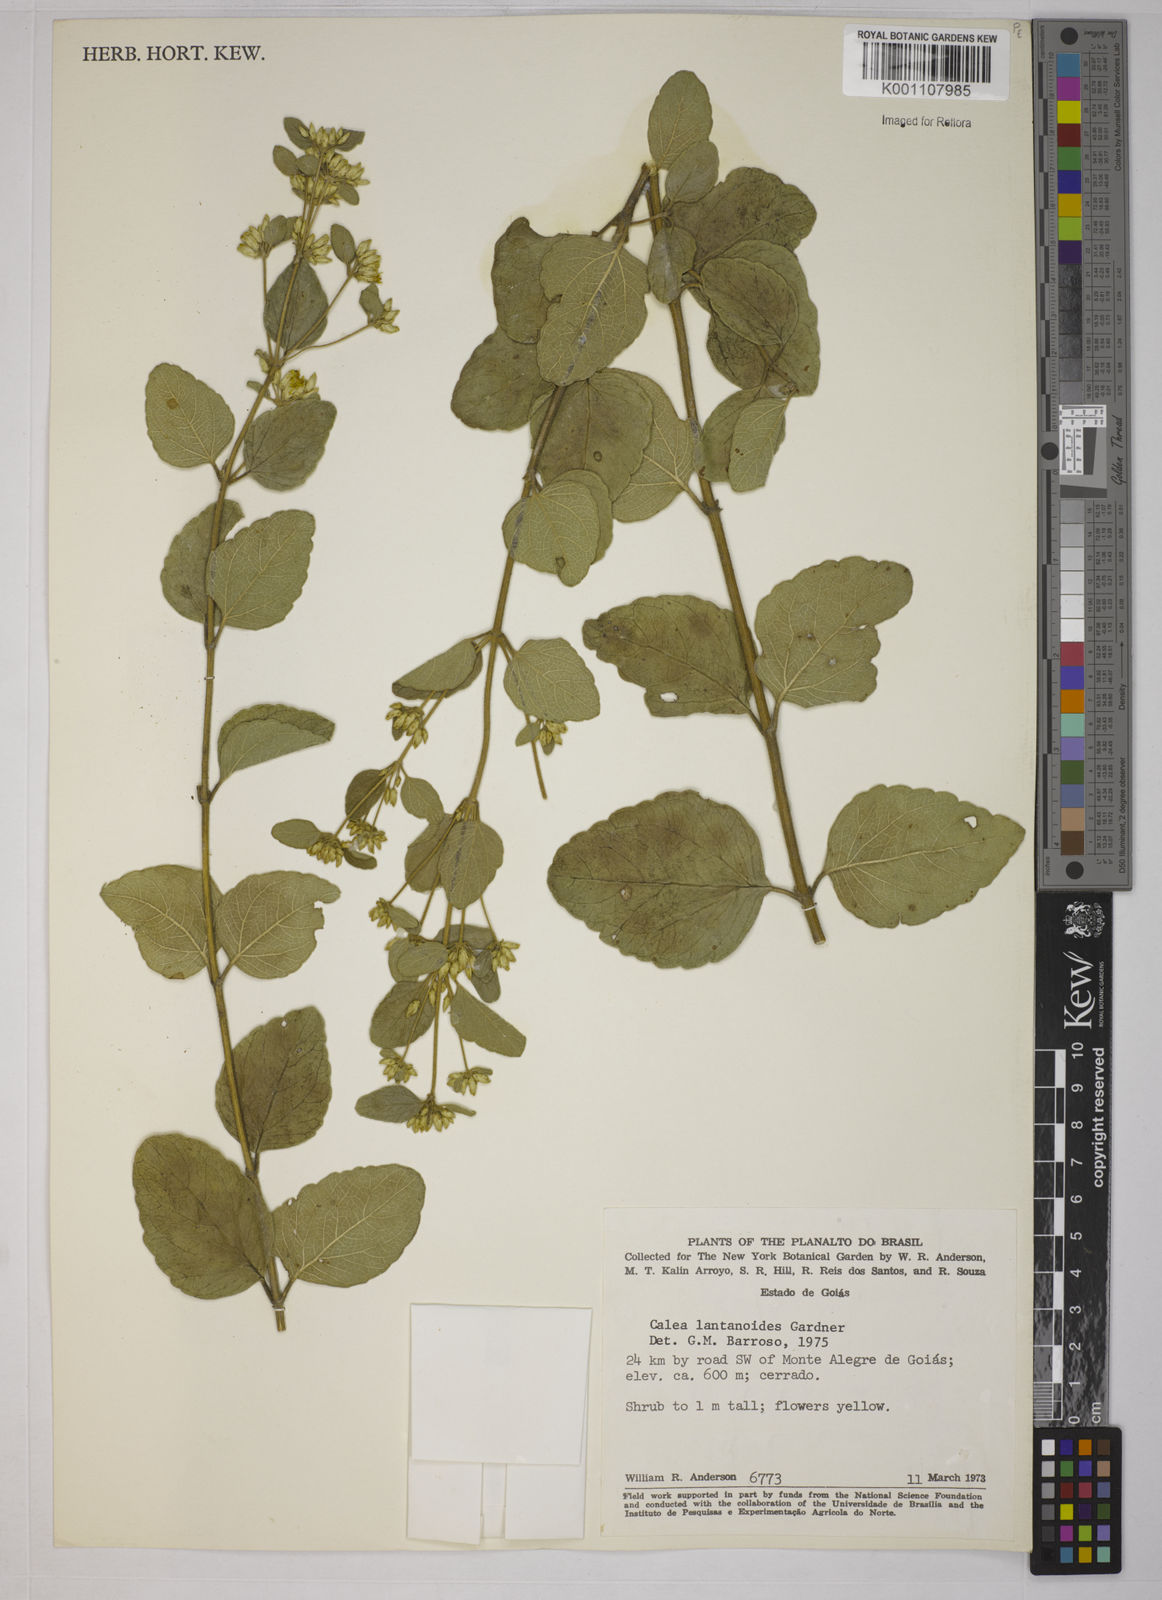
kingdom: Plantae
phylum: Tracheophyta
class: Magnoliopsida
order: Asterales
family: Asteraceae
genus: Calea
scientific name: Calea lantanoides
